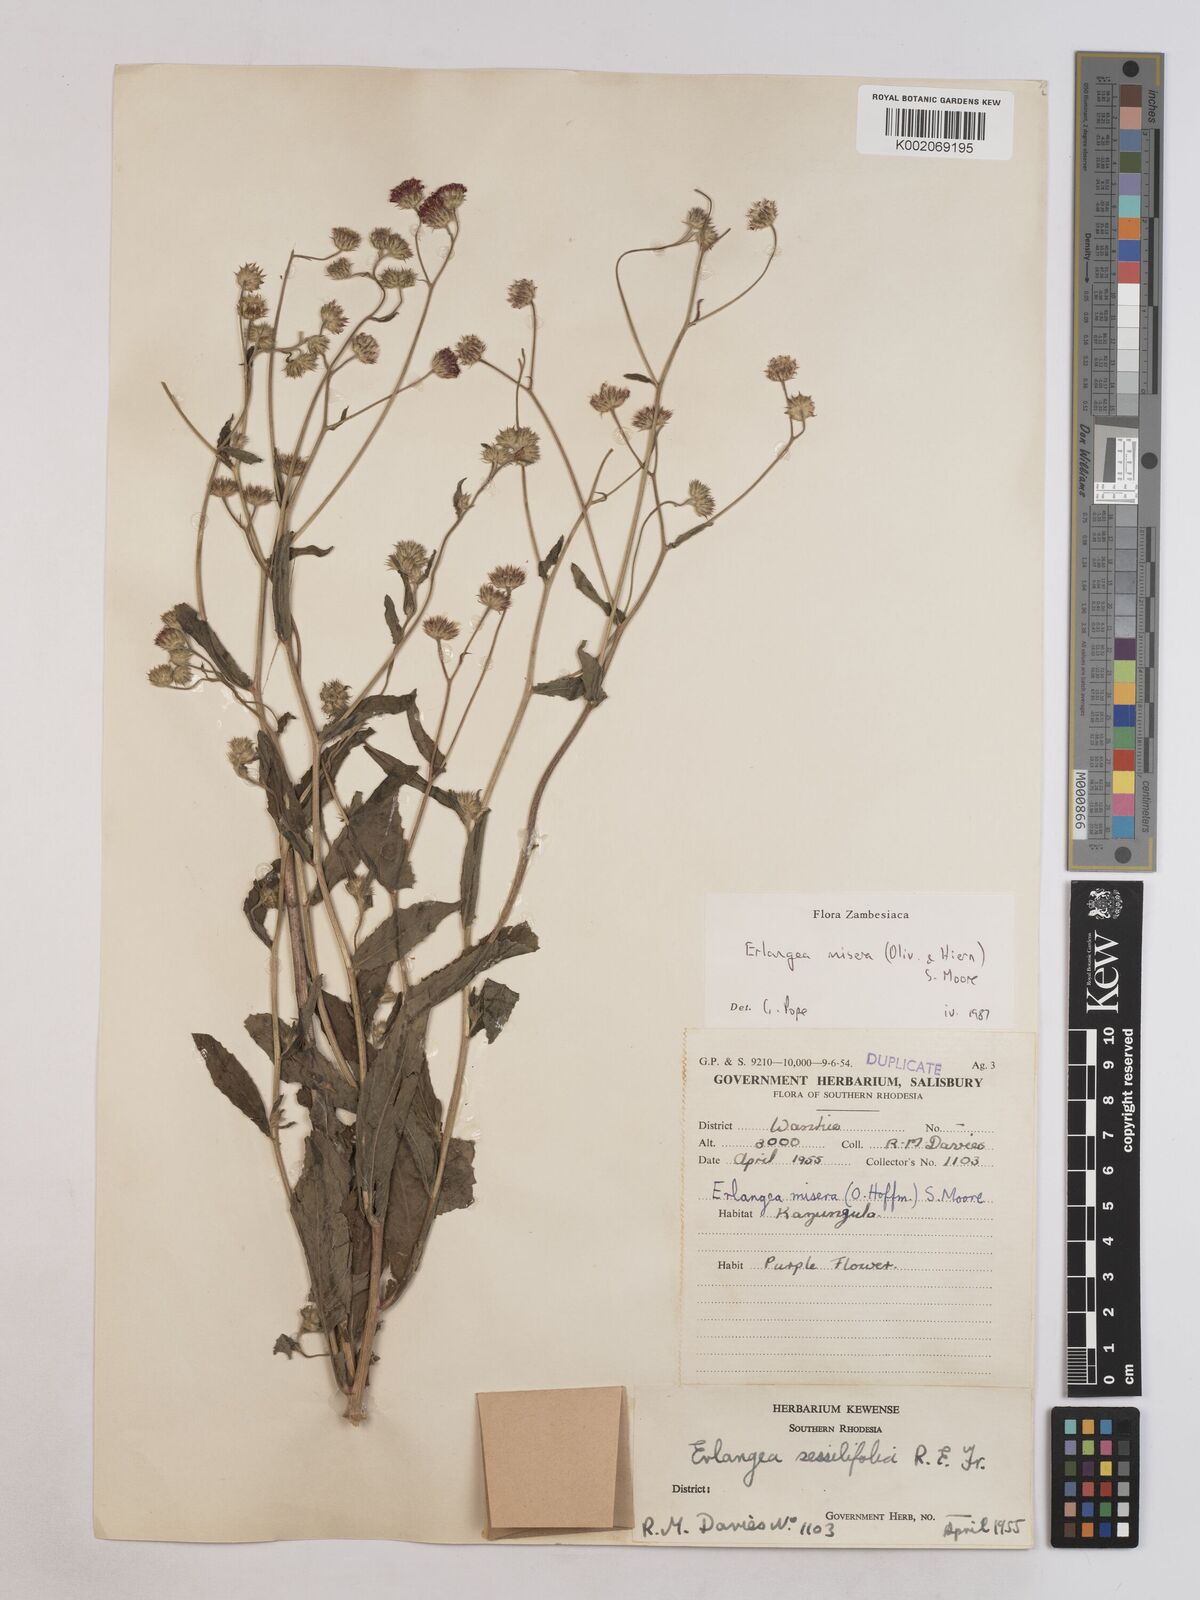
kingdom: Plantae
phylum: Tracheophyta
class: Magnoliopsida
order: Asterales
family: Asteraceae
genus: Erlangea
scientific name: Erlangea misera
